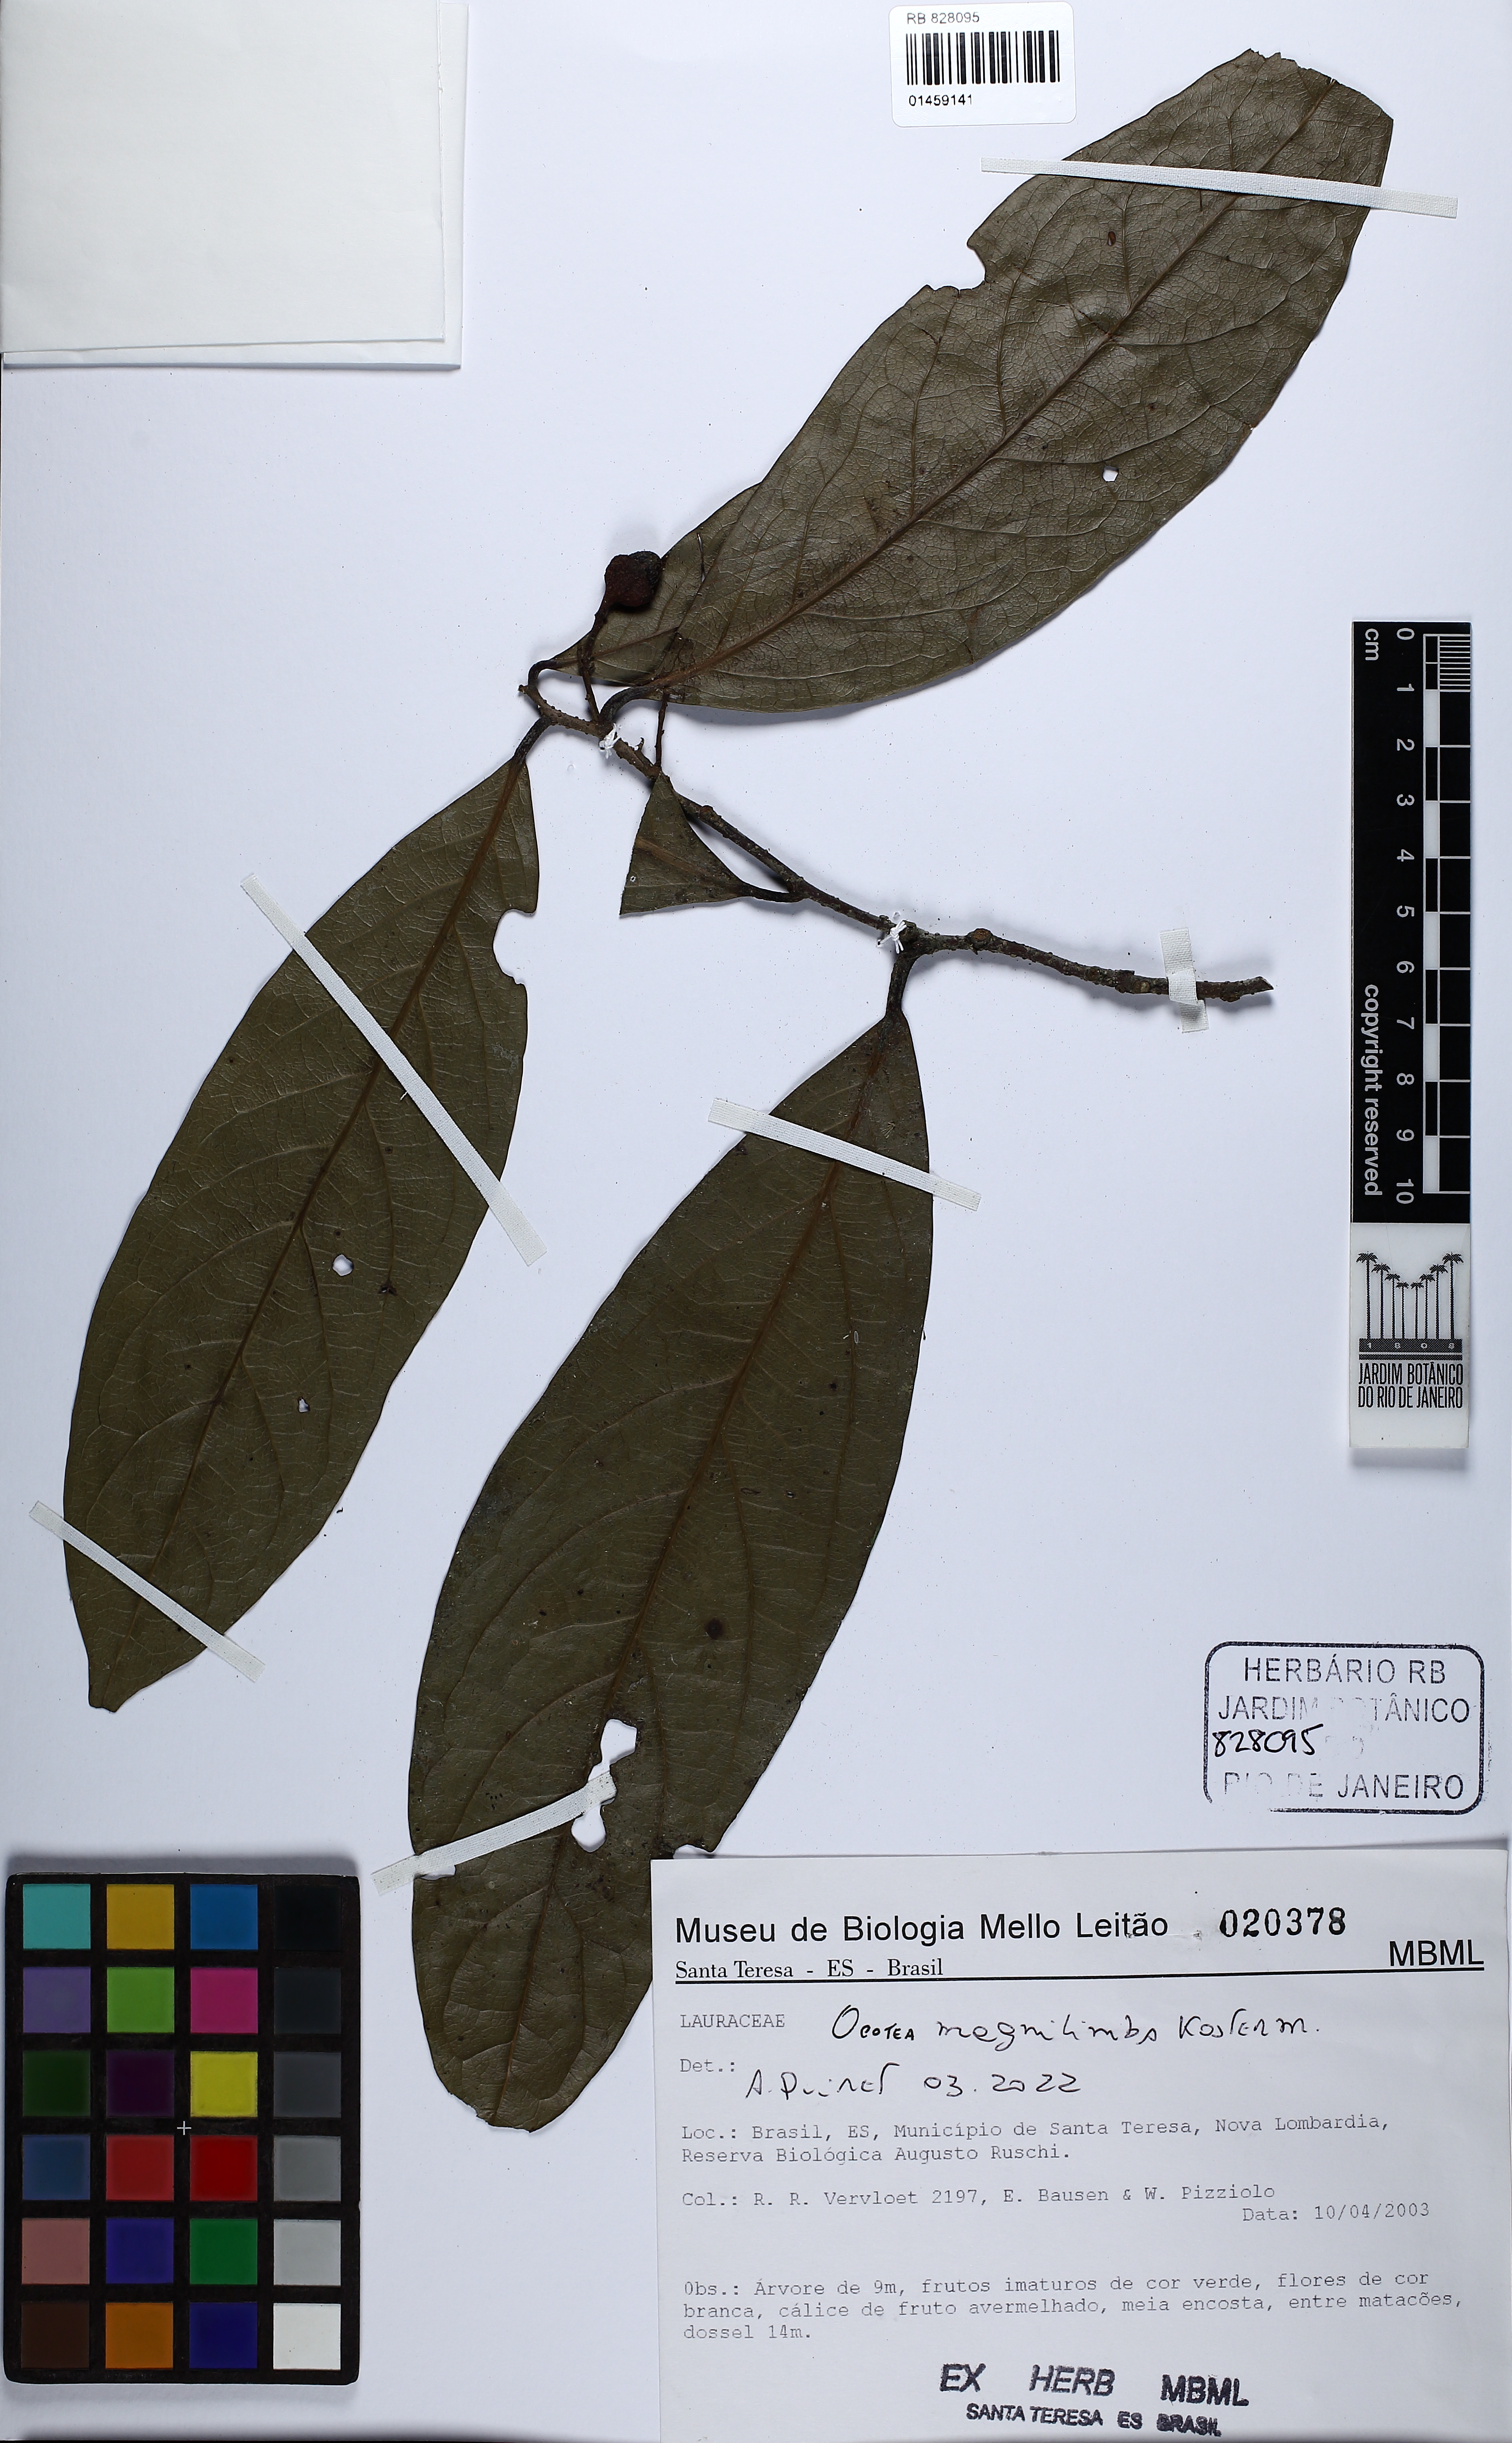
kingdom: Plantae
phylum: Tracheophyta
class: Magnoliopsida
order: Laurales
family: Lauraceae
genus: Ocotea
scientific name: Ocotea magnilimba
